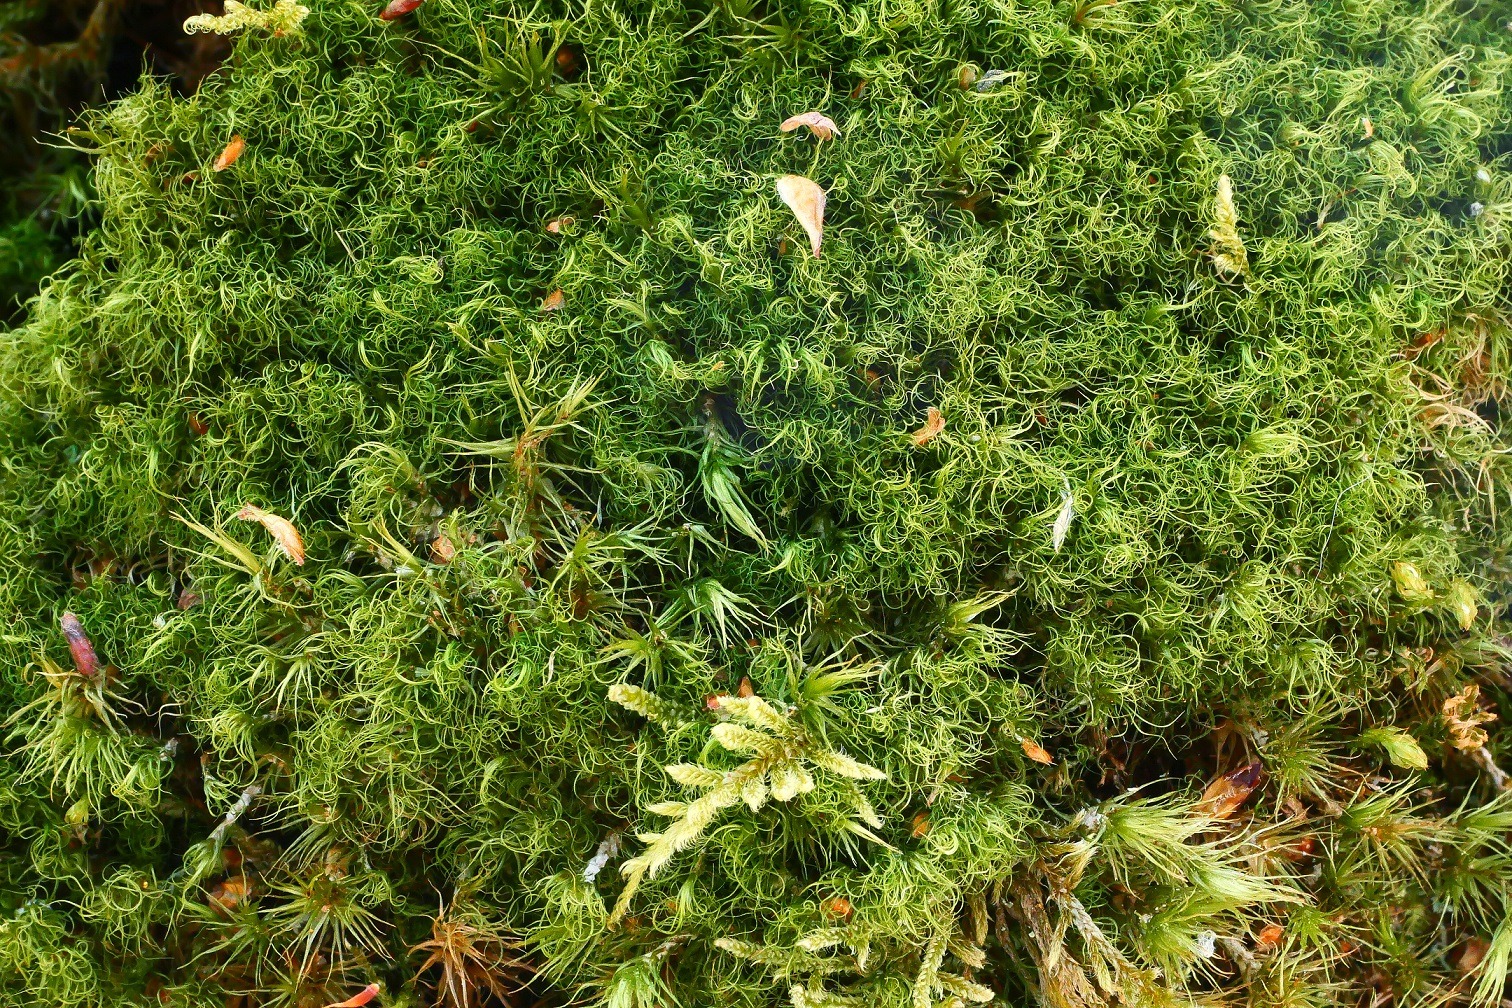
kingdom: Plantae
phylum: Bryophyta
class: Bryopsida
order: Dicranales
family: Dicranaceae
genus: Dicranum
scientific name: Dicranum fuscescens
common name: Mørk kløvtand
